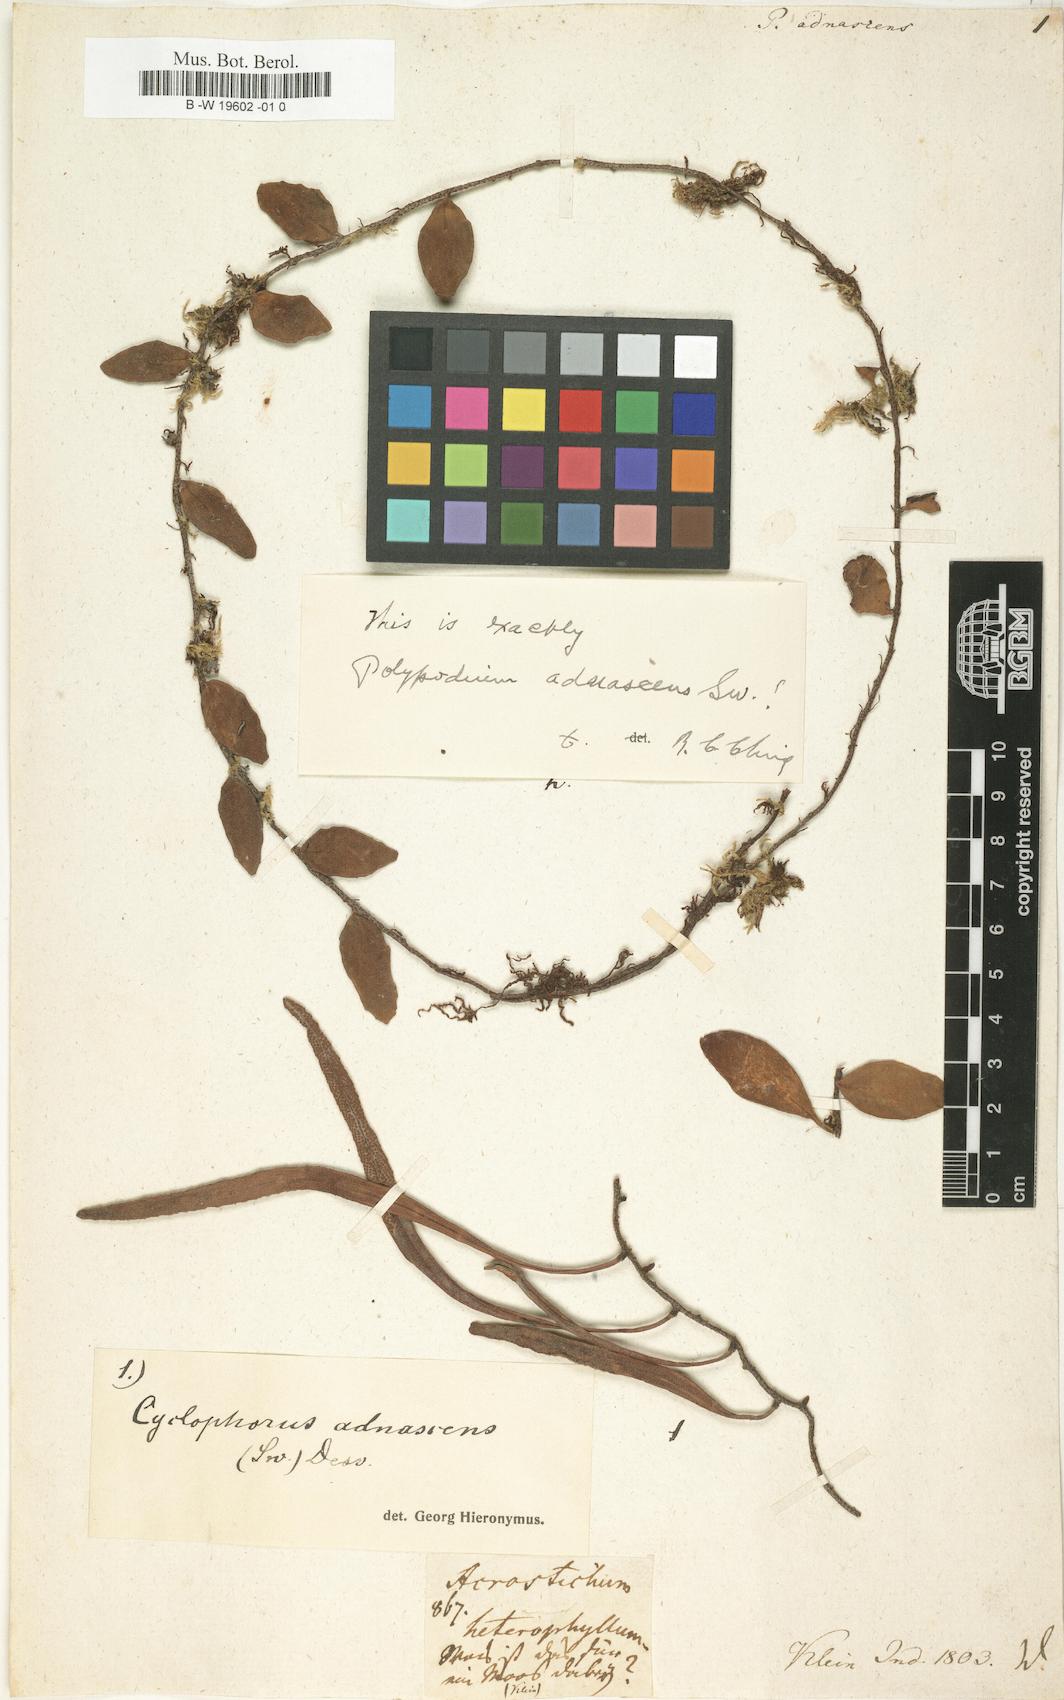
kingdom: Plantae
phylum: Tracheophyta
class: Polypodiopsida
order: Polypodiales
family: Polypodiaceae
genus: Pyrrosia
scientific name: Pyrrosia
